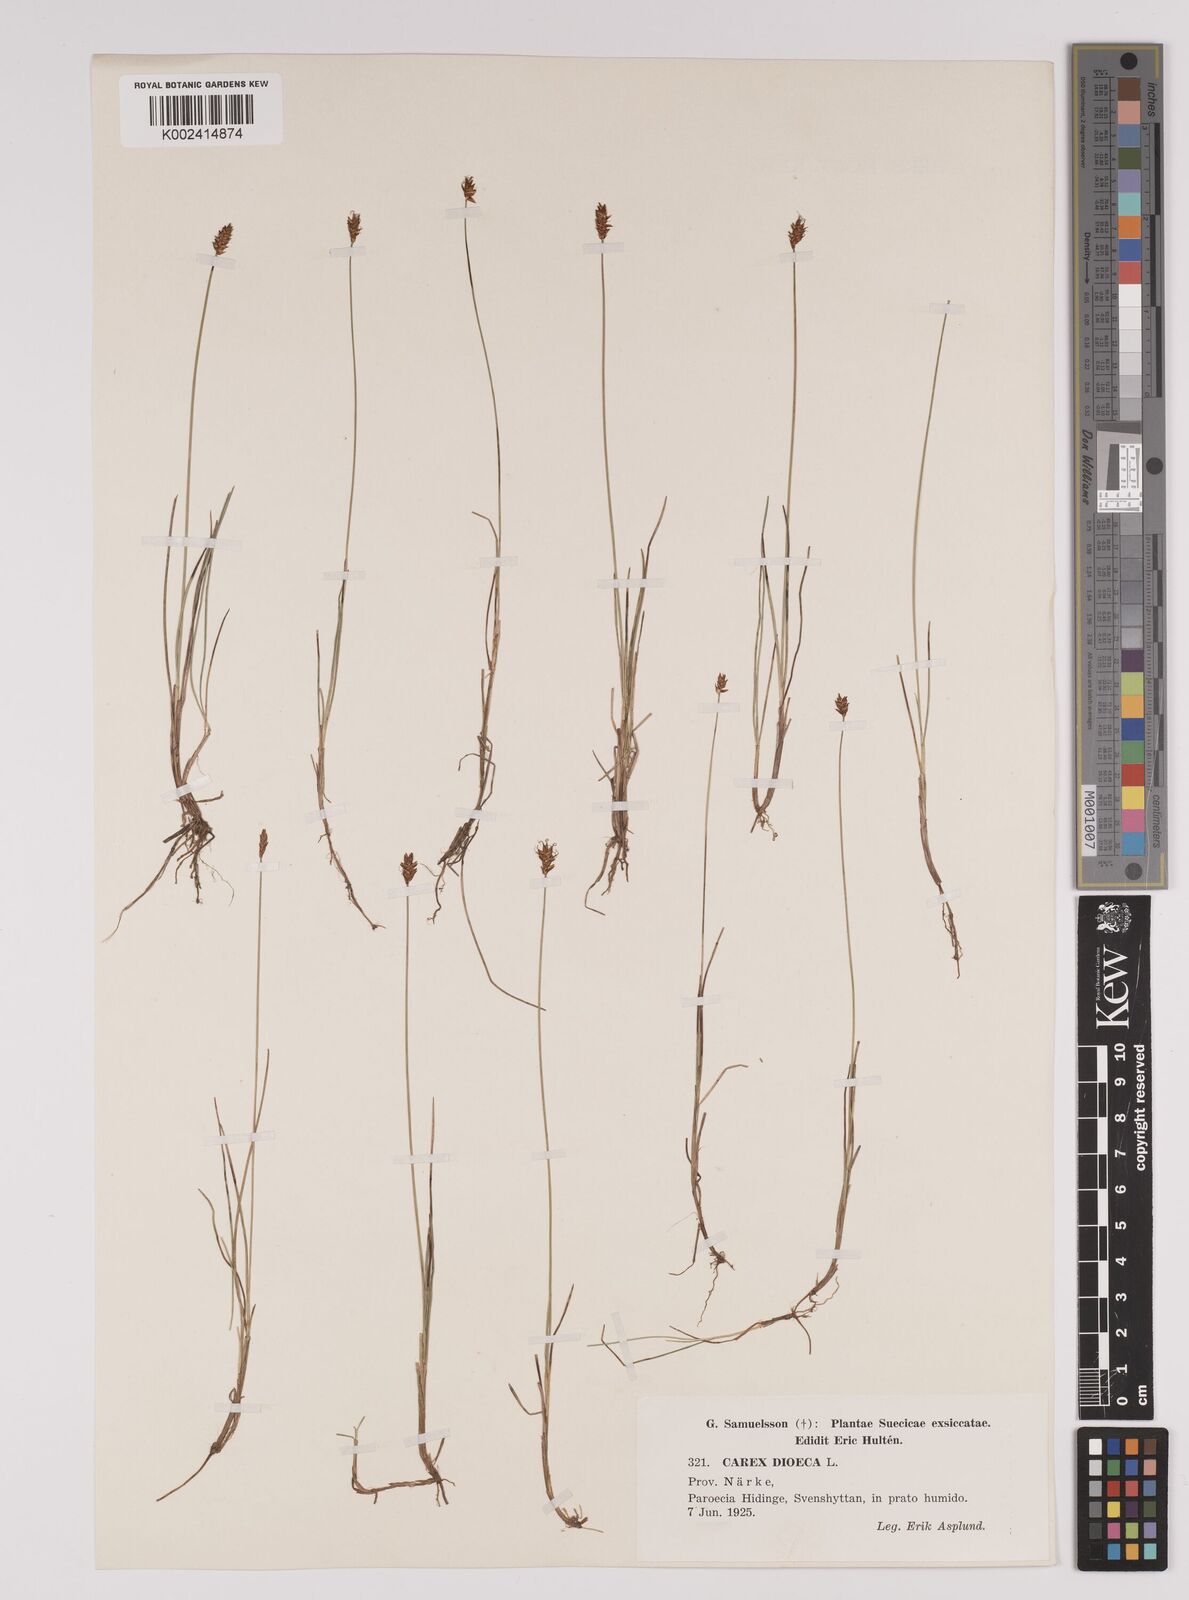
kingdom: Plantae
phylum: Tracheophyta
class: Liliopsida
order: Poales
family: Cyperaceae
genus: Carex
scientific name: Carex dioica
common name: Dioecious sedge
